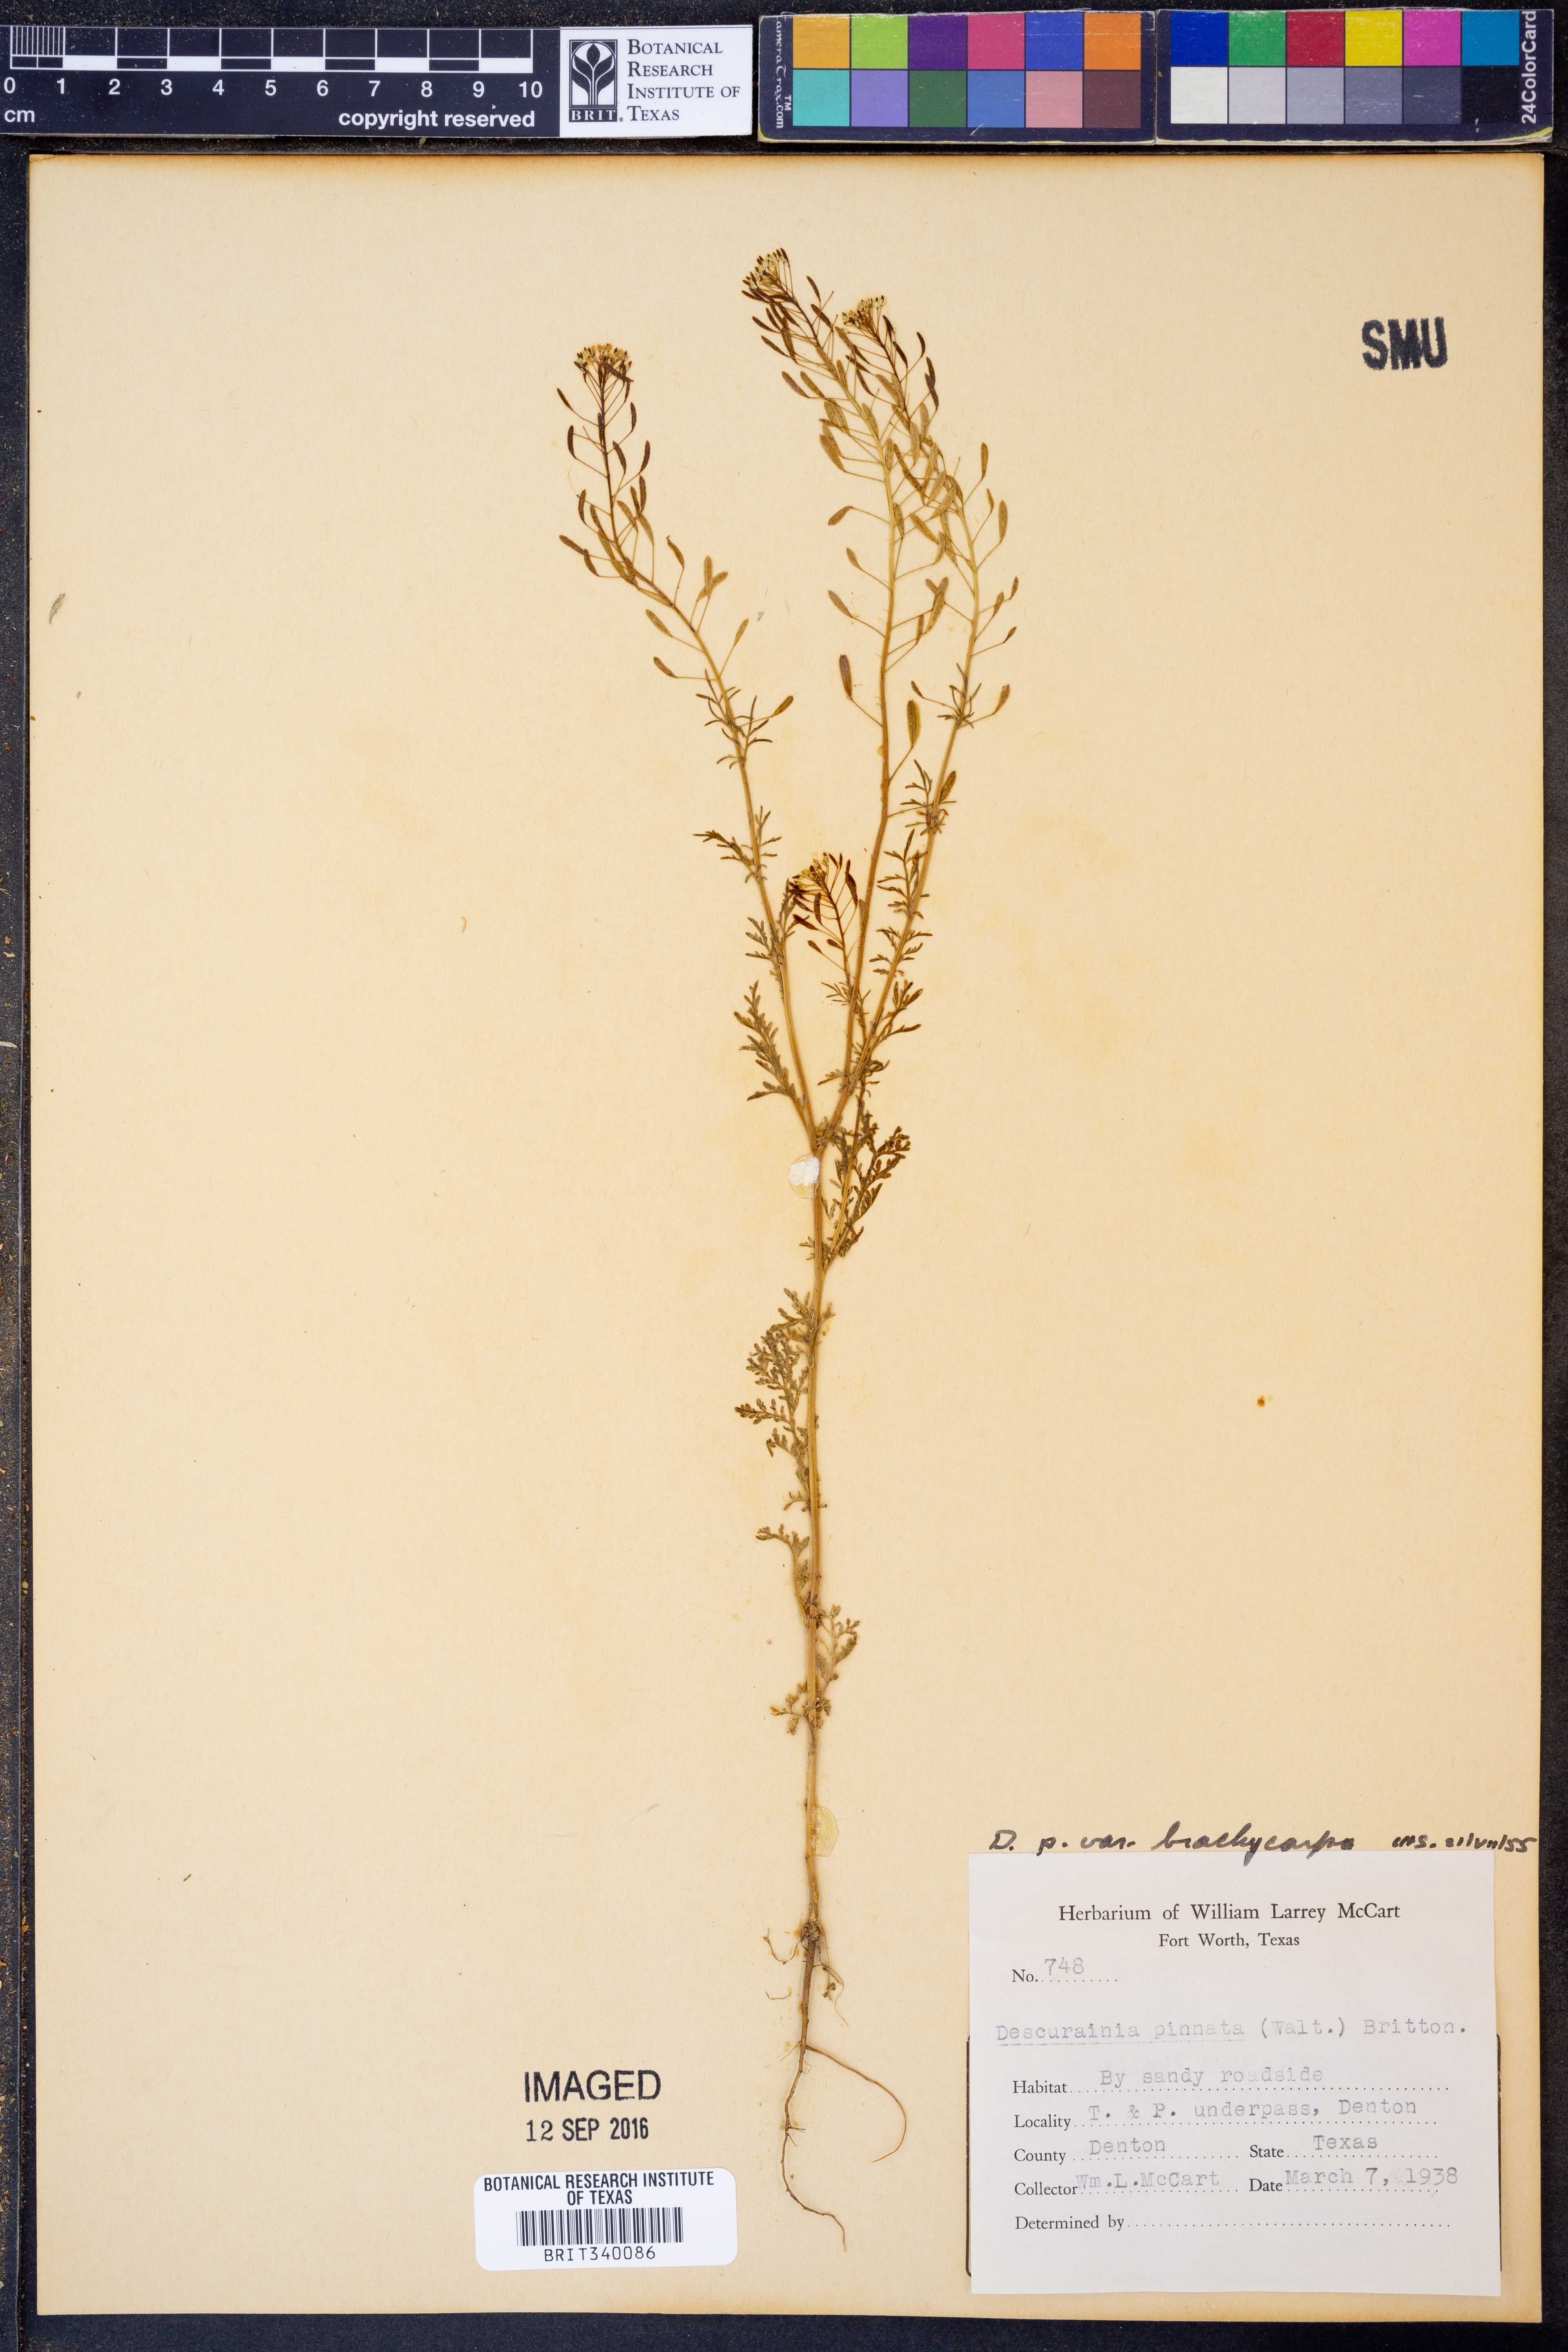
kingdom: Plantae
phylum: Tracheophyta
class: Magnoliopsida
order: Brassicales
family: Brassicaceae
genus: Descurainia
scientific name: Descurainia pinnata
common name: Western tansy mustard
